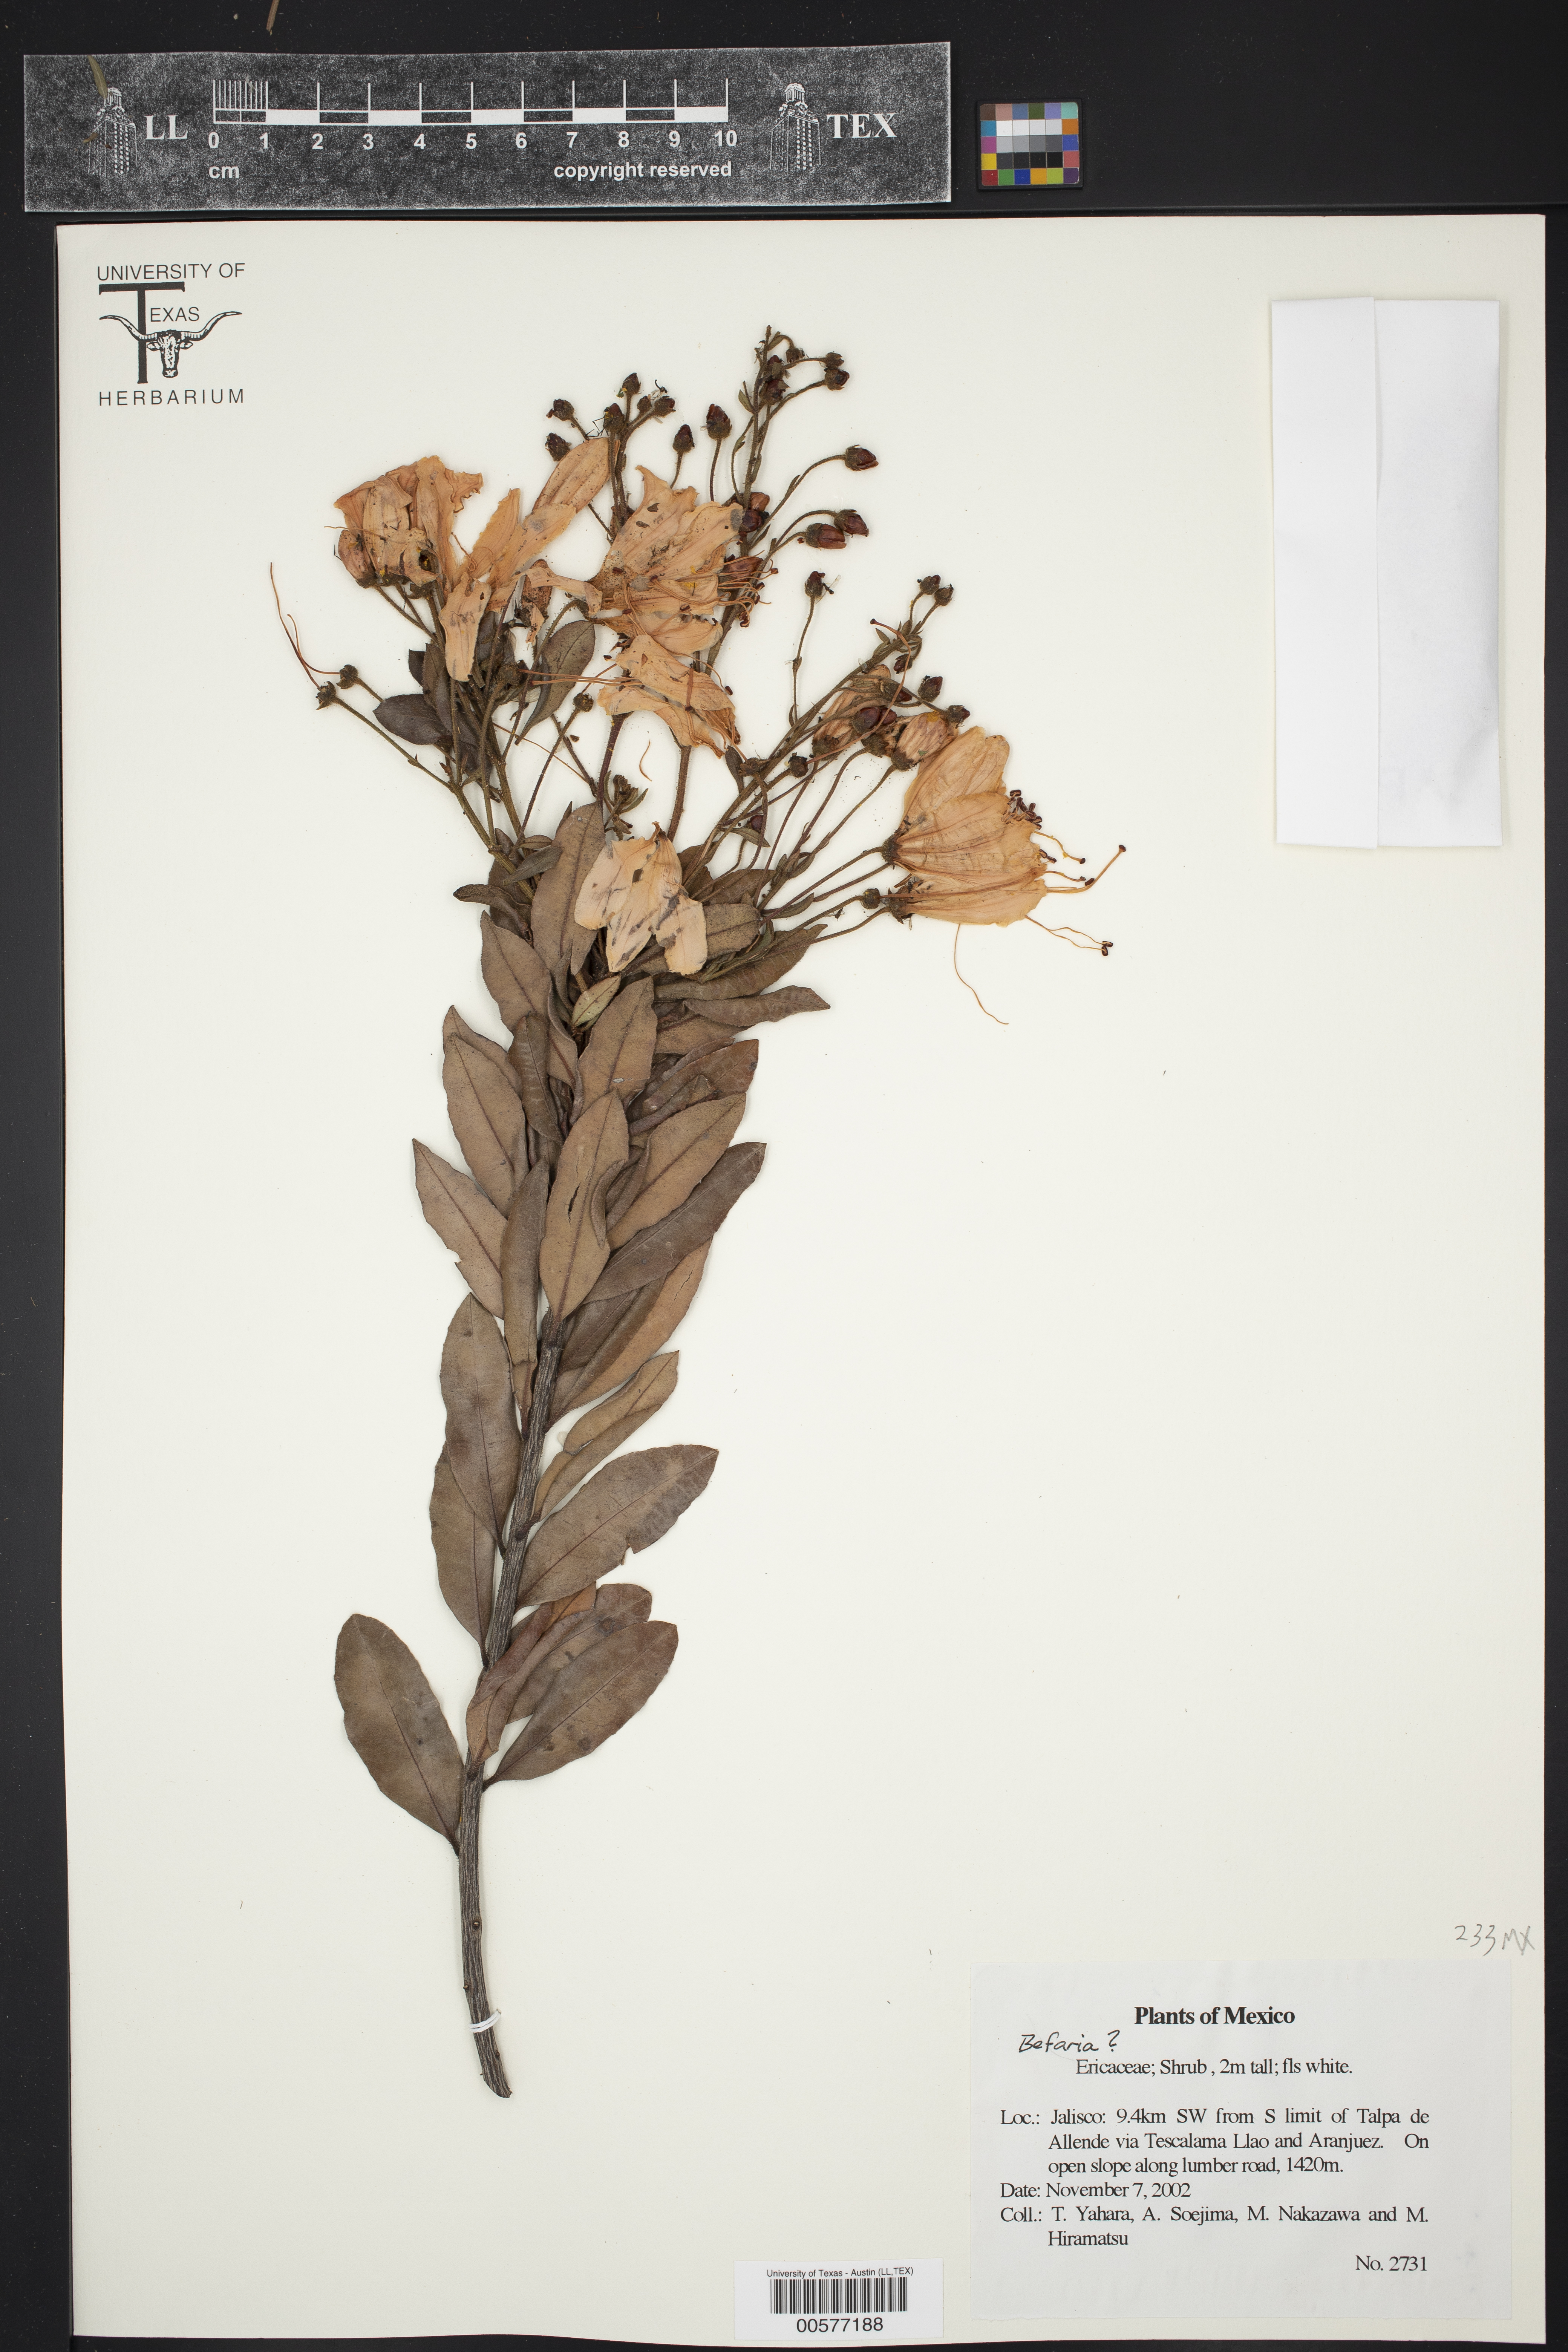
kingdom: Plantae
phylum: Tracheophyta
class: Magnoliopsida
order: Ericales
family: Ericaceae
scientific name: Ericaceae
